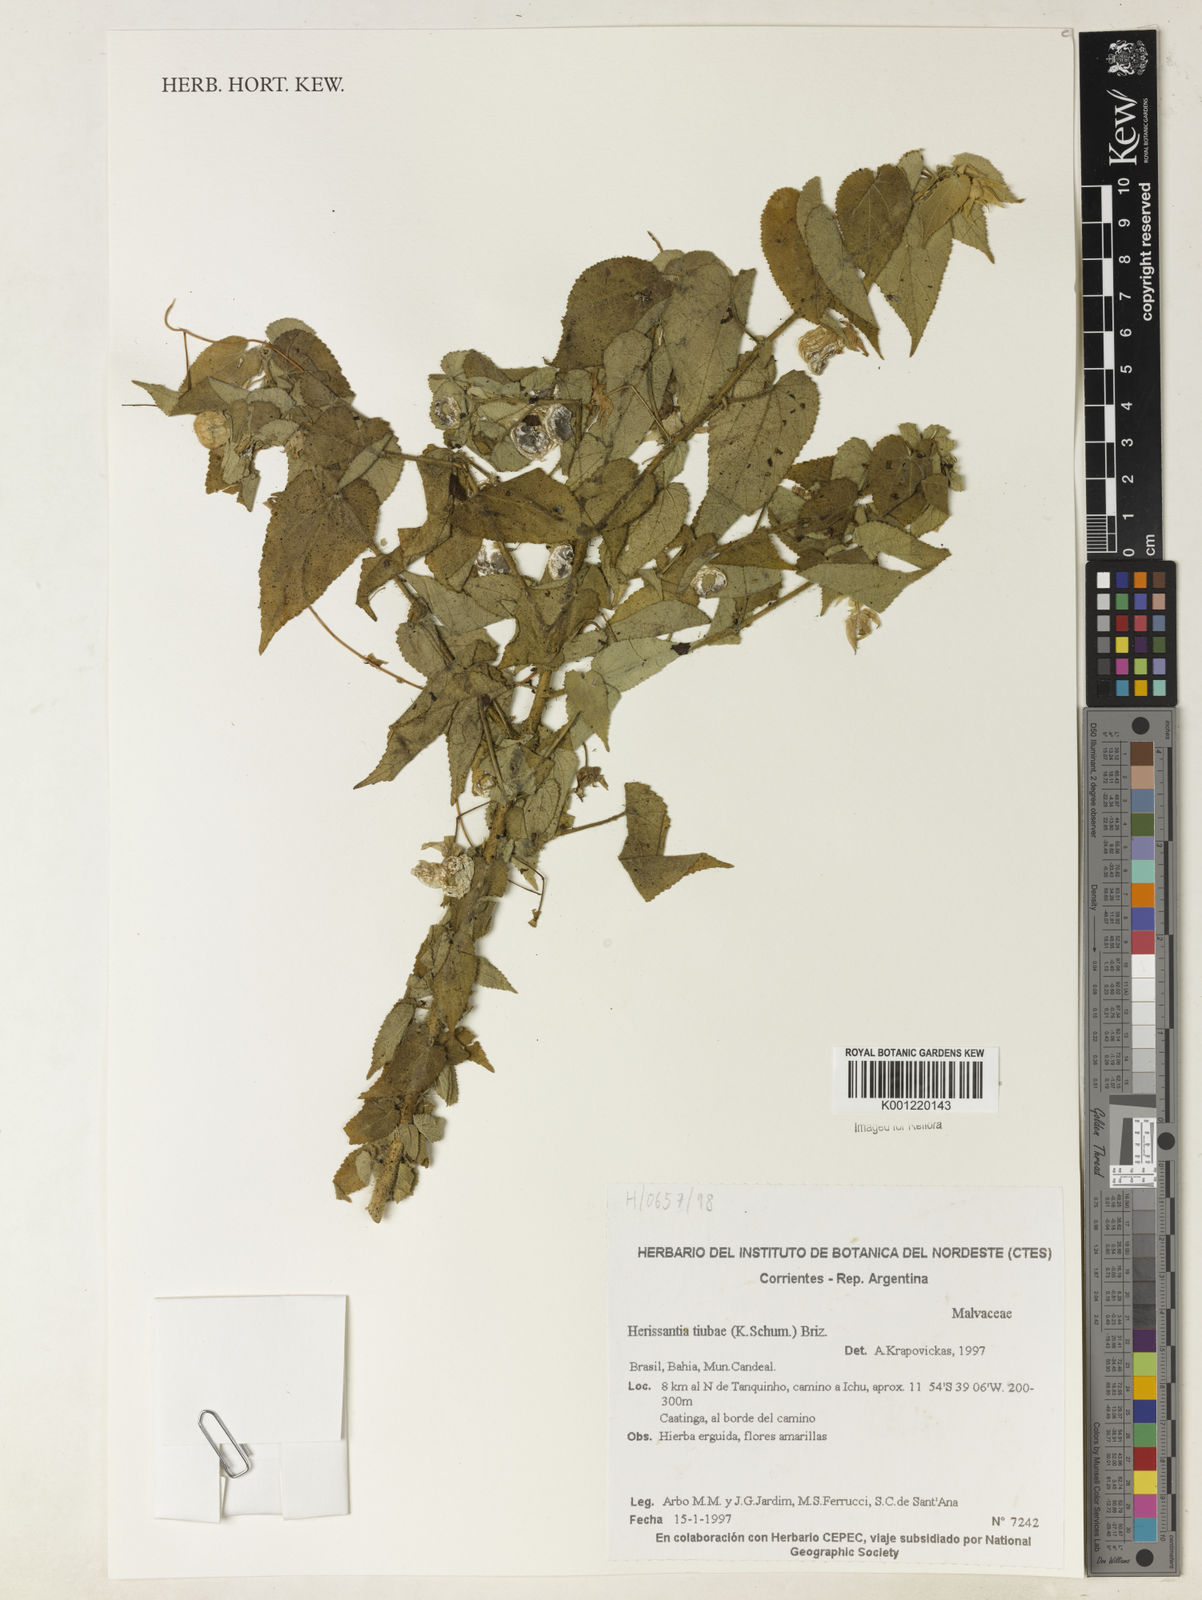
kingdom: Plantae
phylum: Tracheophyta
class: Magnoliopsida
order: Malvales
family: Malvaceae
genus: Herissantia
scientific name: Herissantia tiubae
